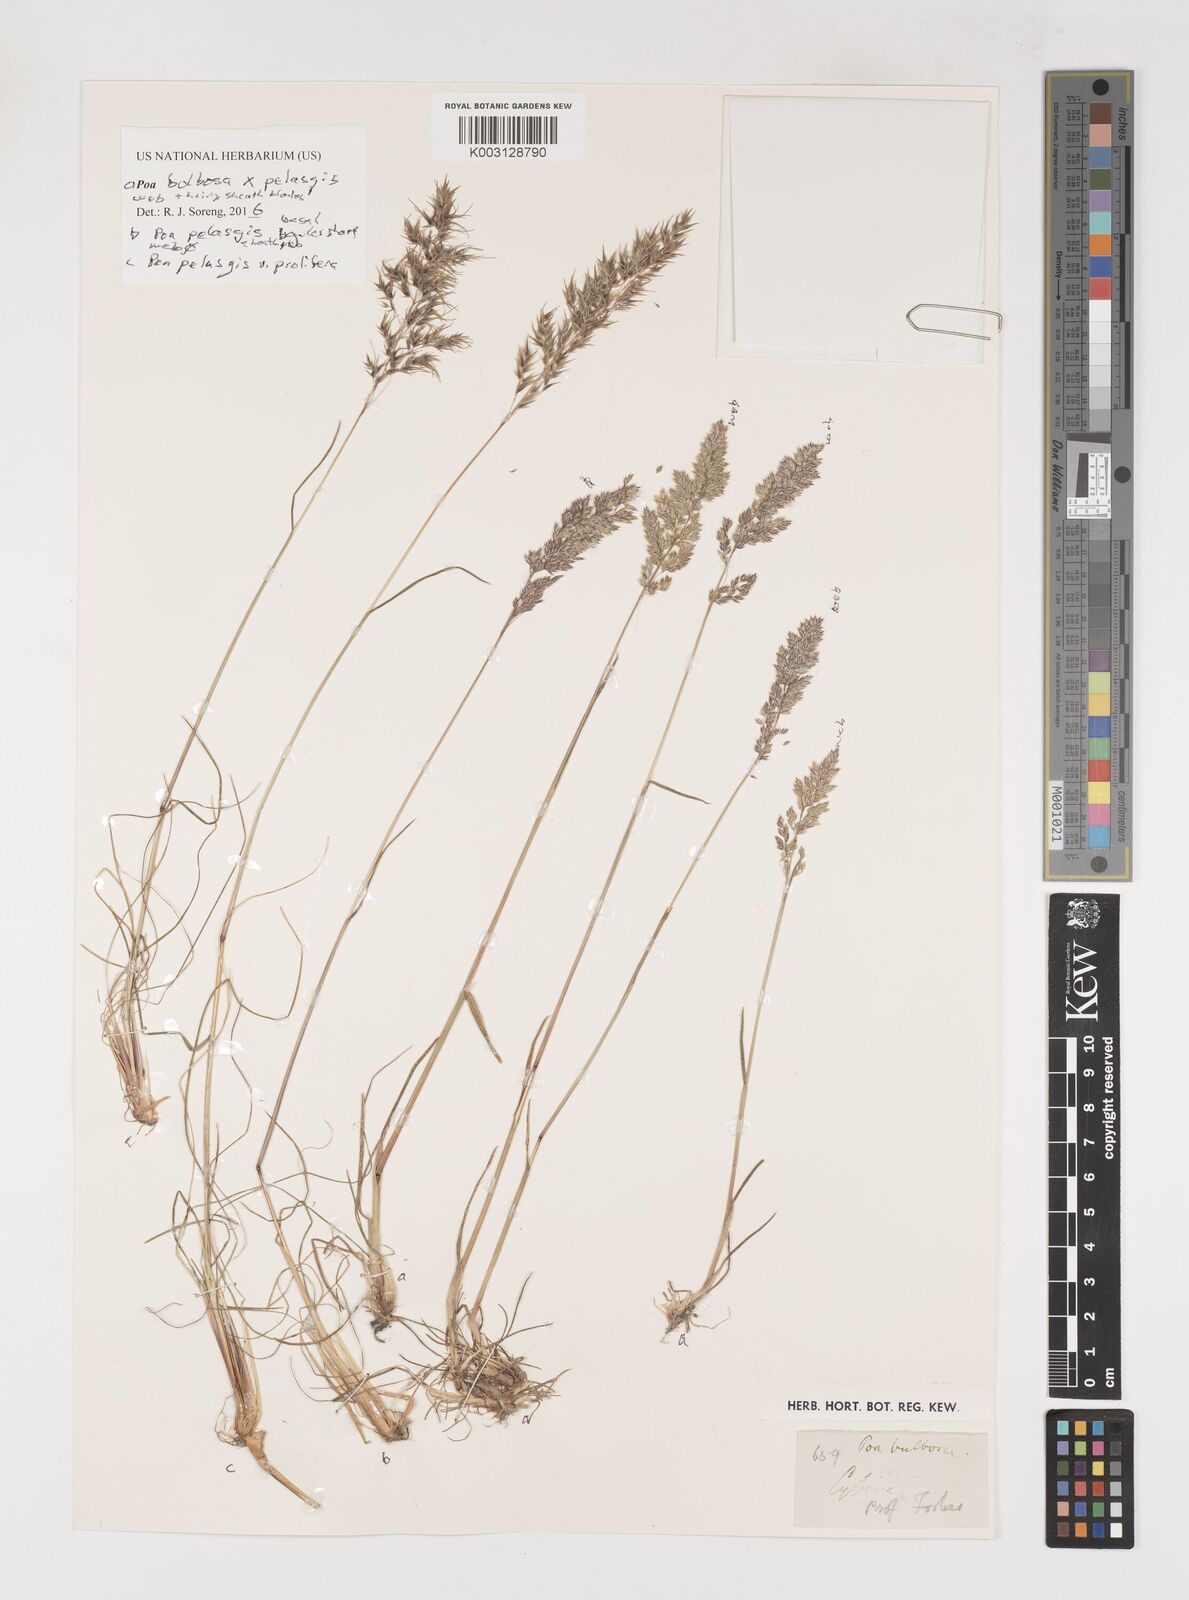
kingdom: Plantae
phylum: Tracheophyta
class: Liliopsida
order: Poales
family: Poaceae
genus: Poa
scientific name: Poa iconia
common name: Konya bluegrass
